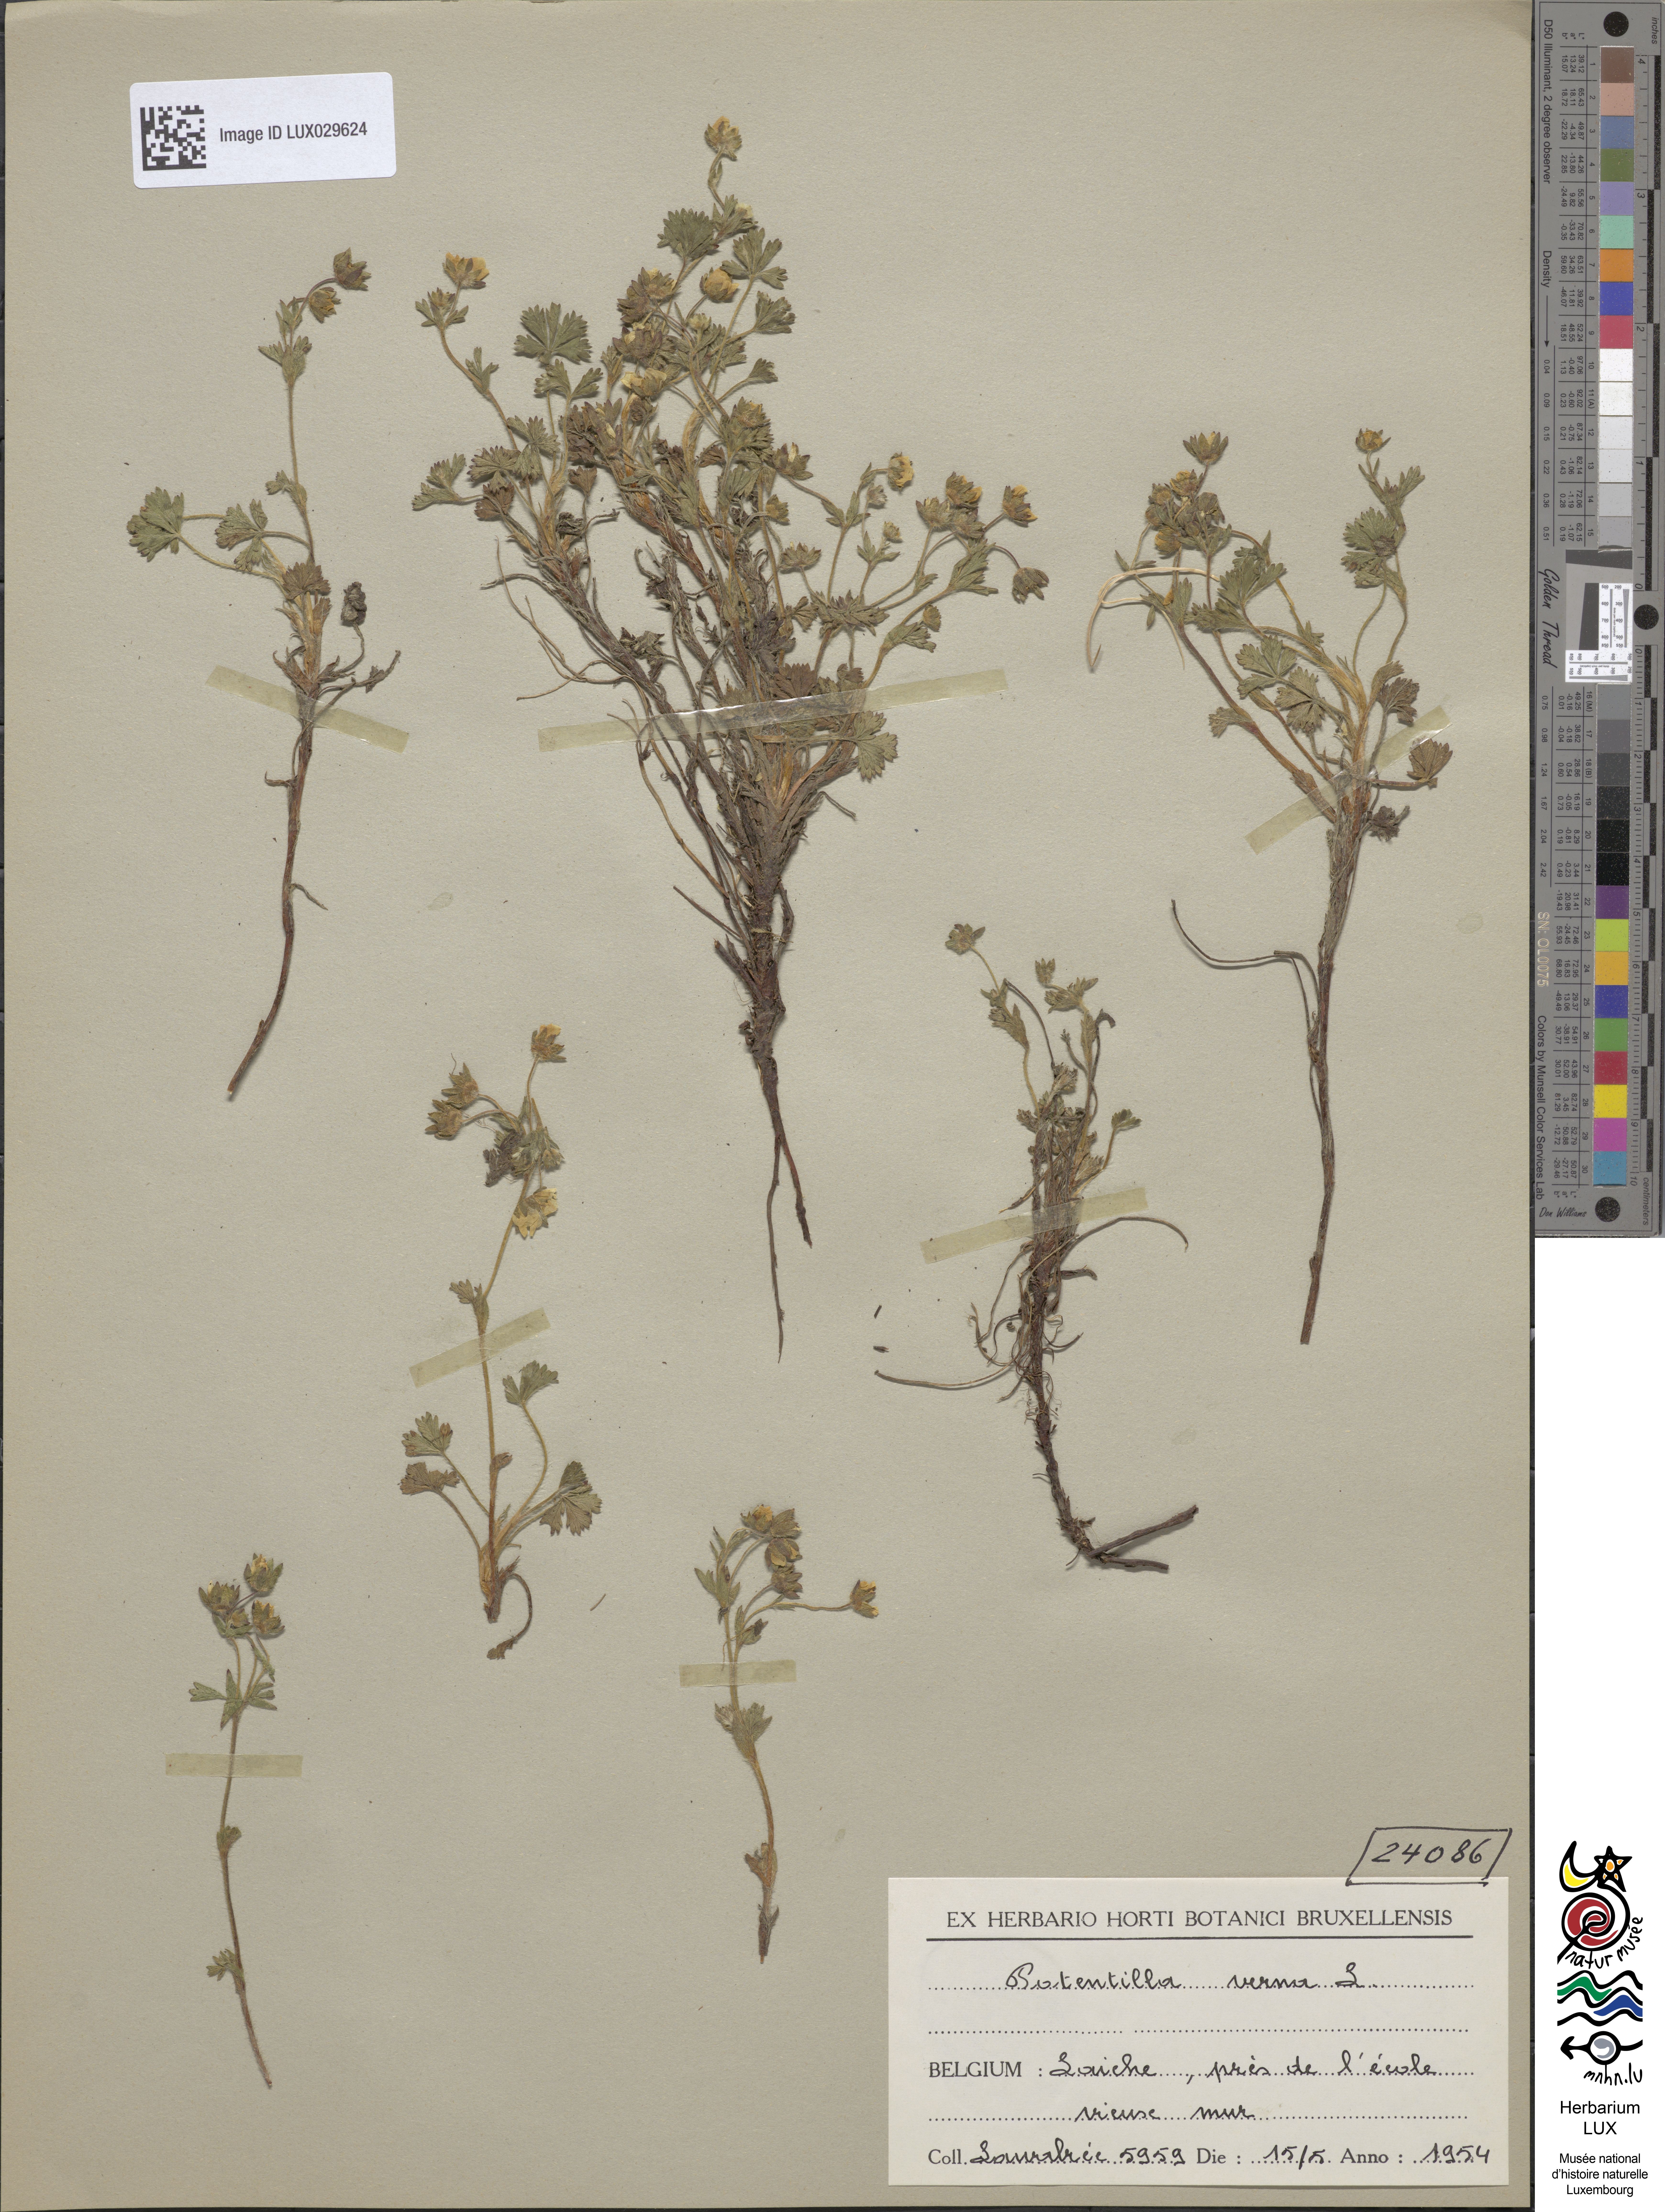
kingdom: Plantae
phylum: Tracheophyta
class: Magnoliopsida
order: Rosales
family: Rosaceae
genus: Potentilla
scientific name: Potentilla verna
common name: Spring cinquefoil
